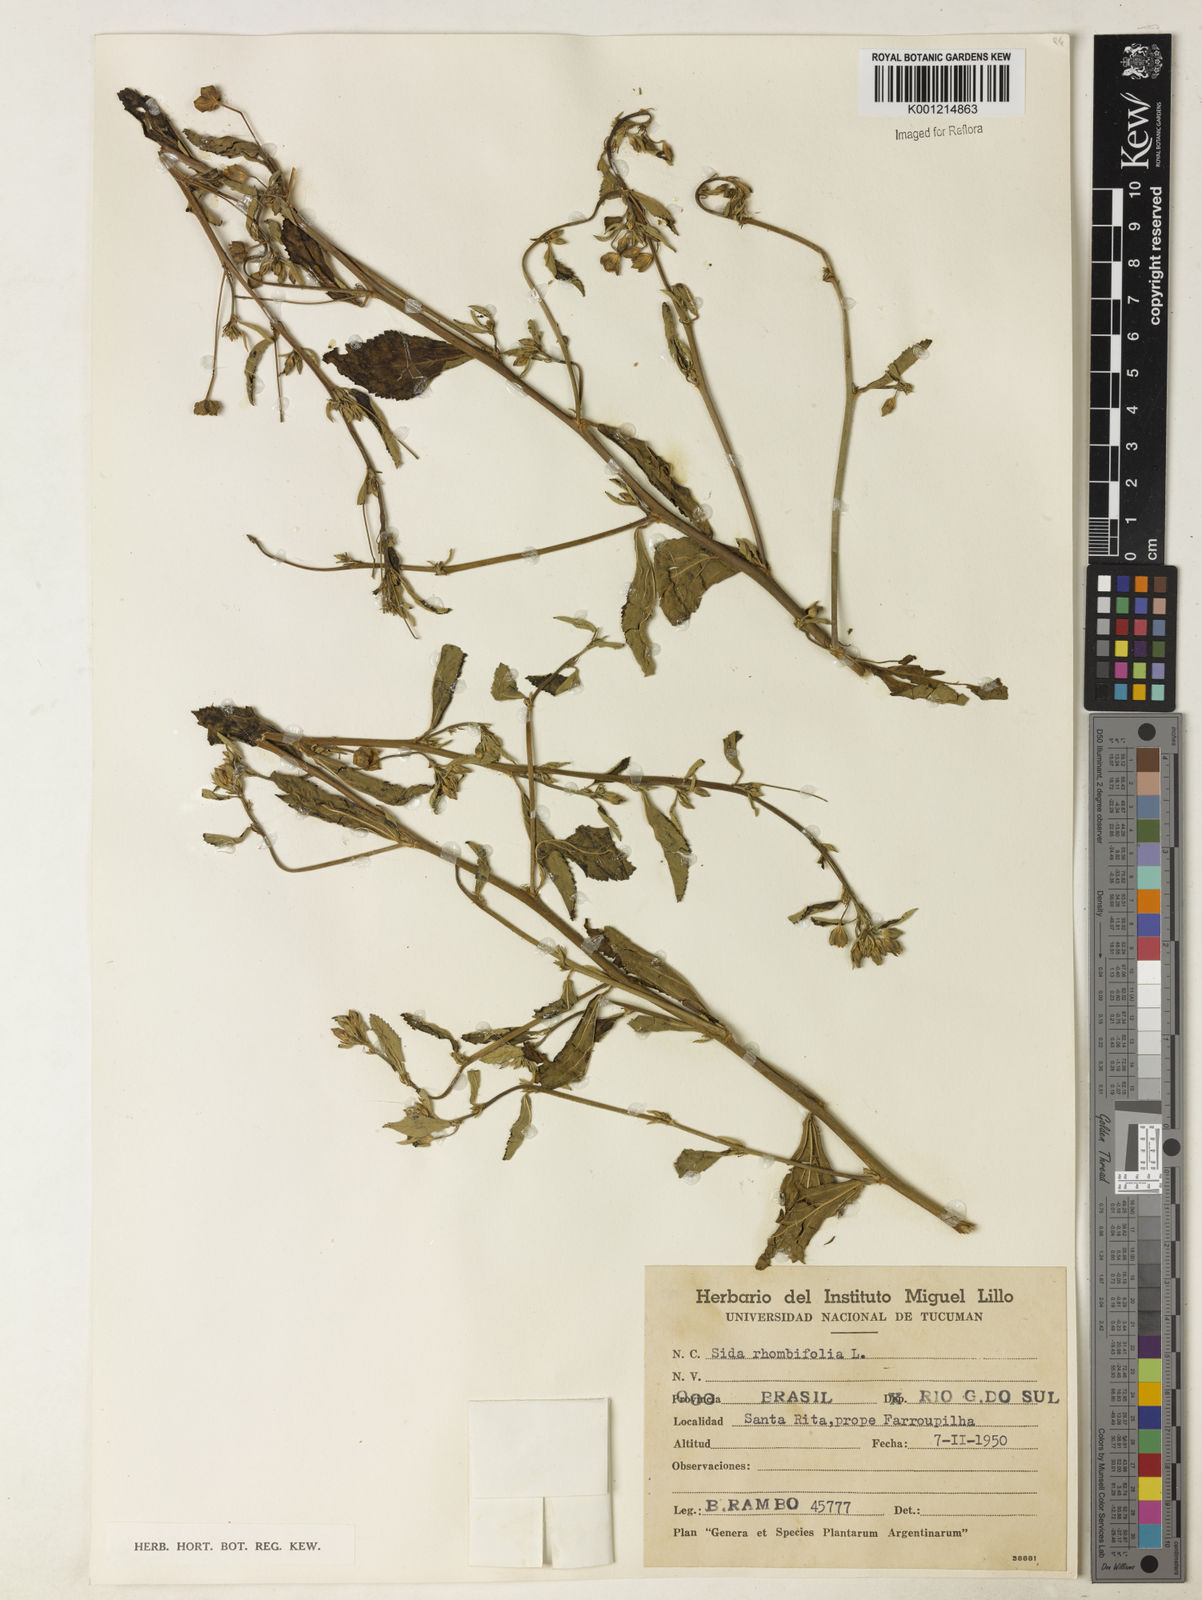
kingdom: Plantae
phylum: Tracheophyta
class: Magnoliopsida
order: Malvales
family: Malvaceae
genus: Sida
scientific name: Sida rhombifolia
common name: Queensland-hemp
